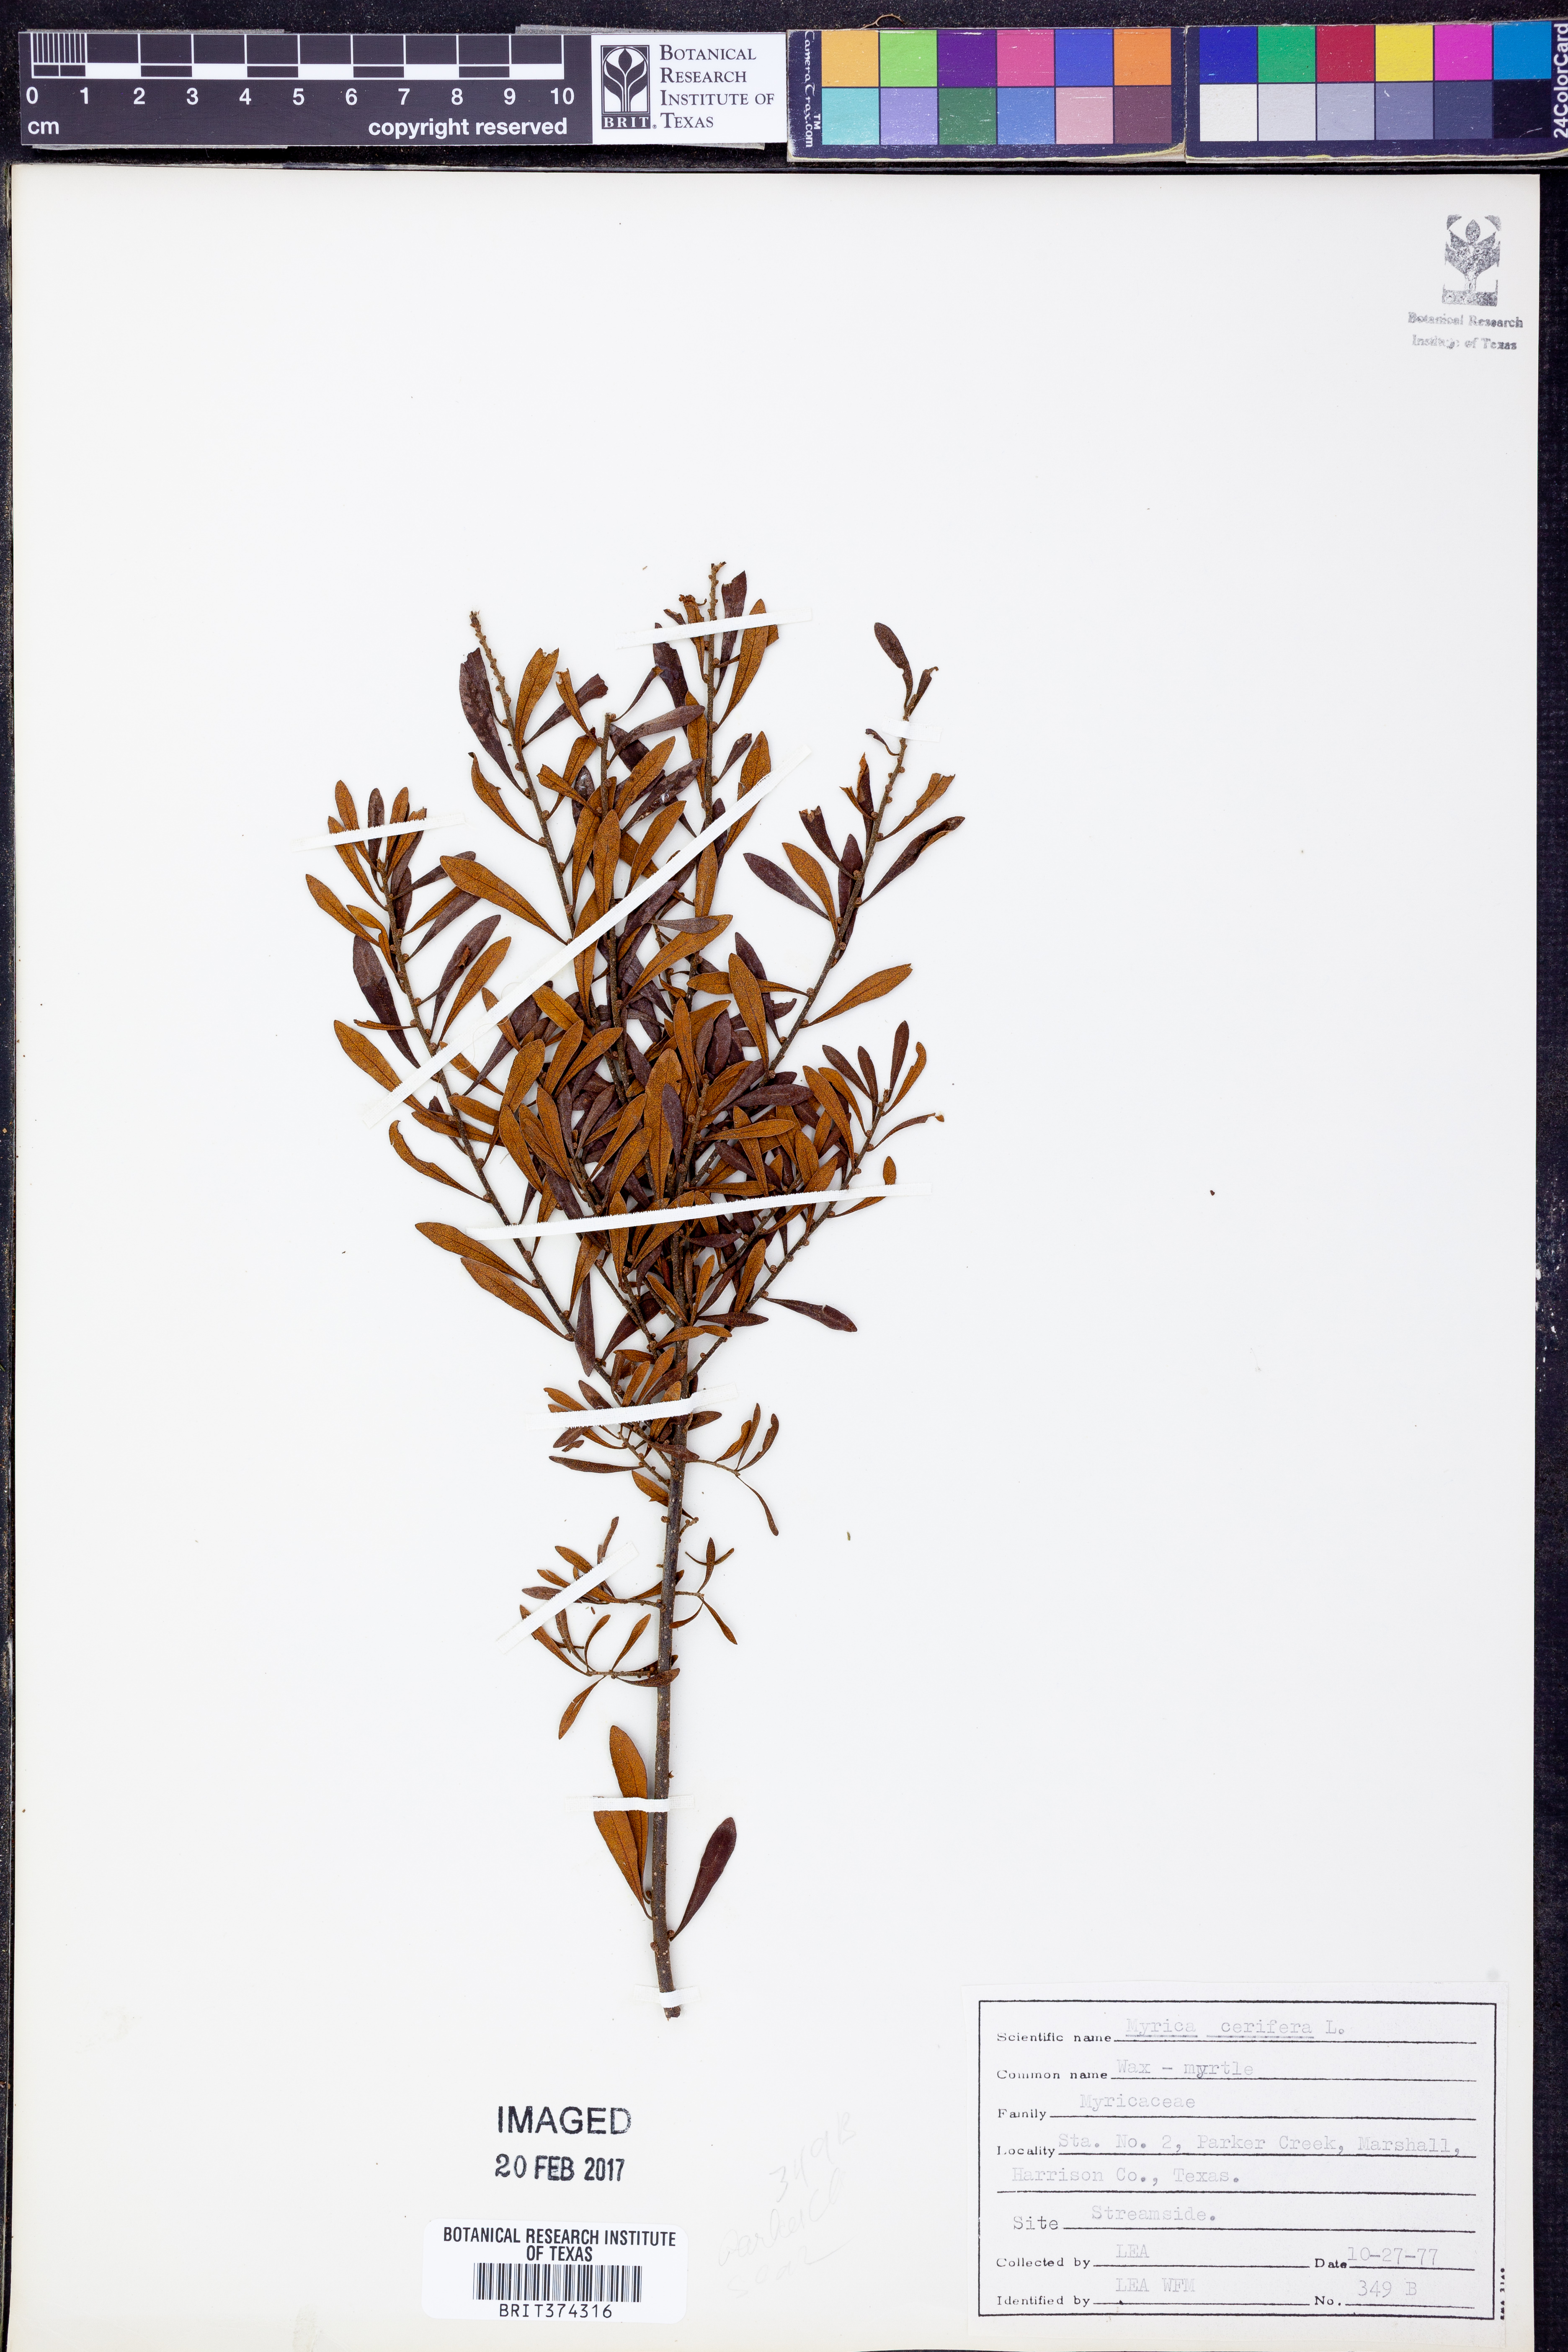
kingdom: Plantae
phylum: Tracheophyta
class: Magnoliopsida
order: Fagales
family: Myricaceae
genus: Morella
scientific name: Morella cerifera
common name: Wax myrtle
